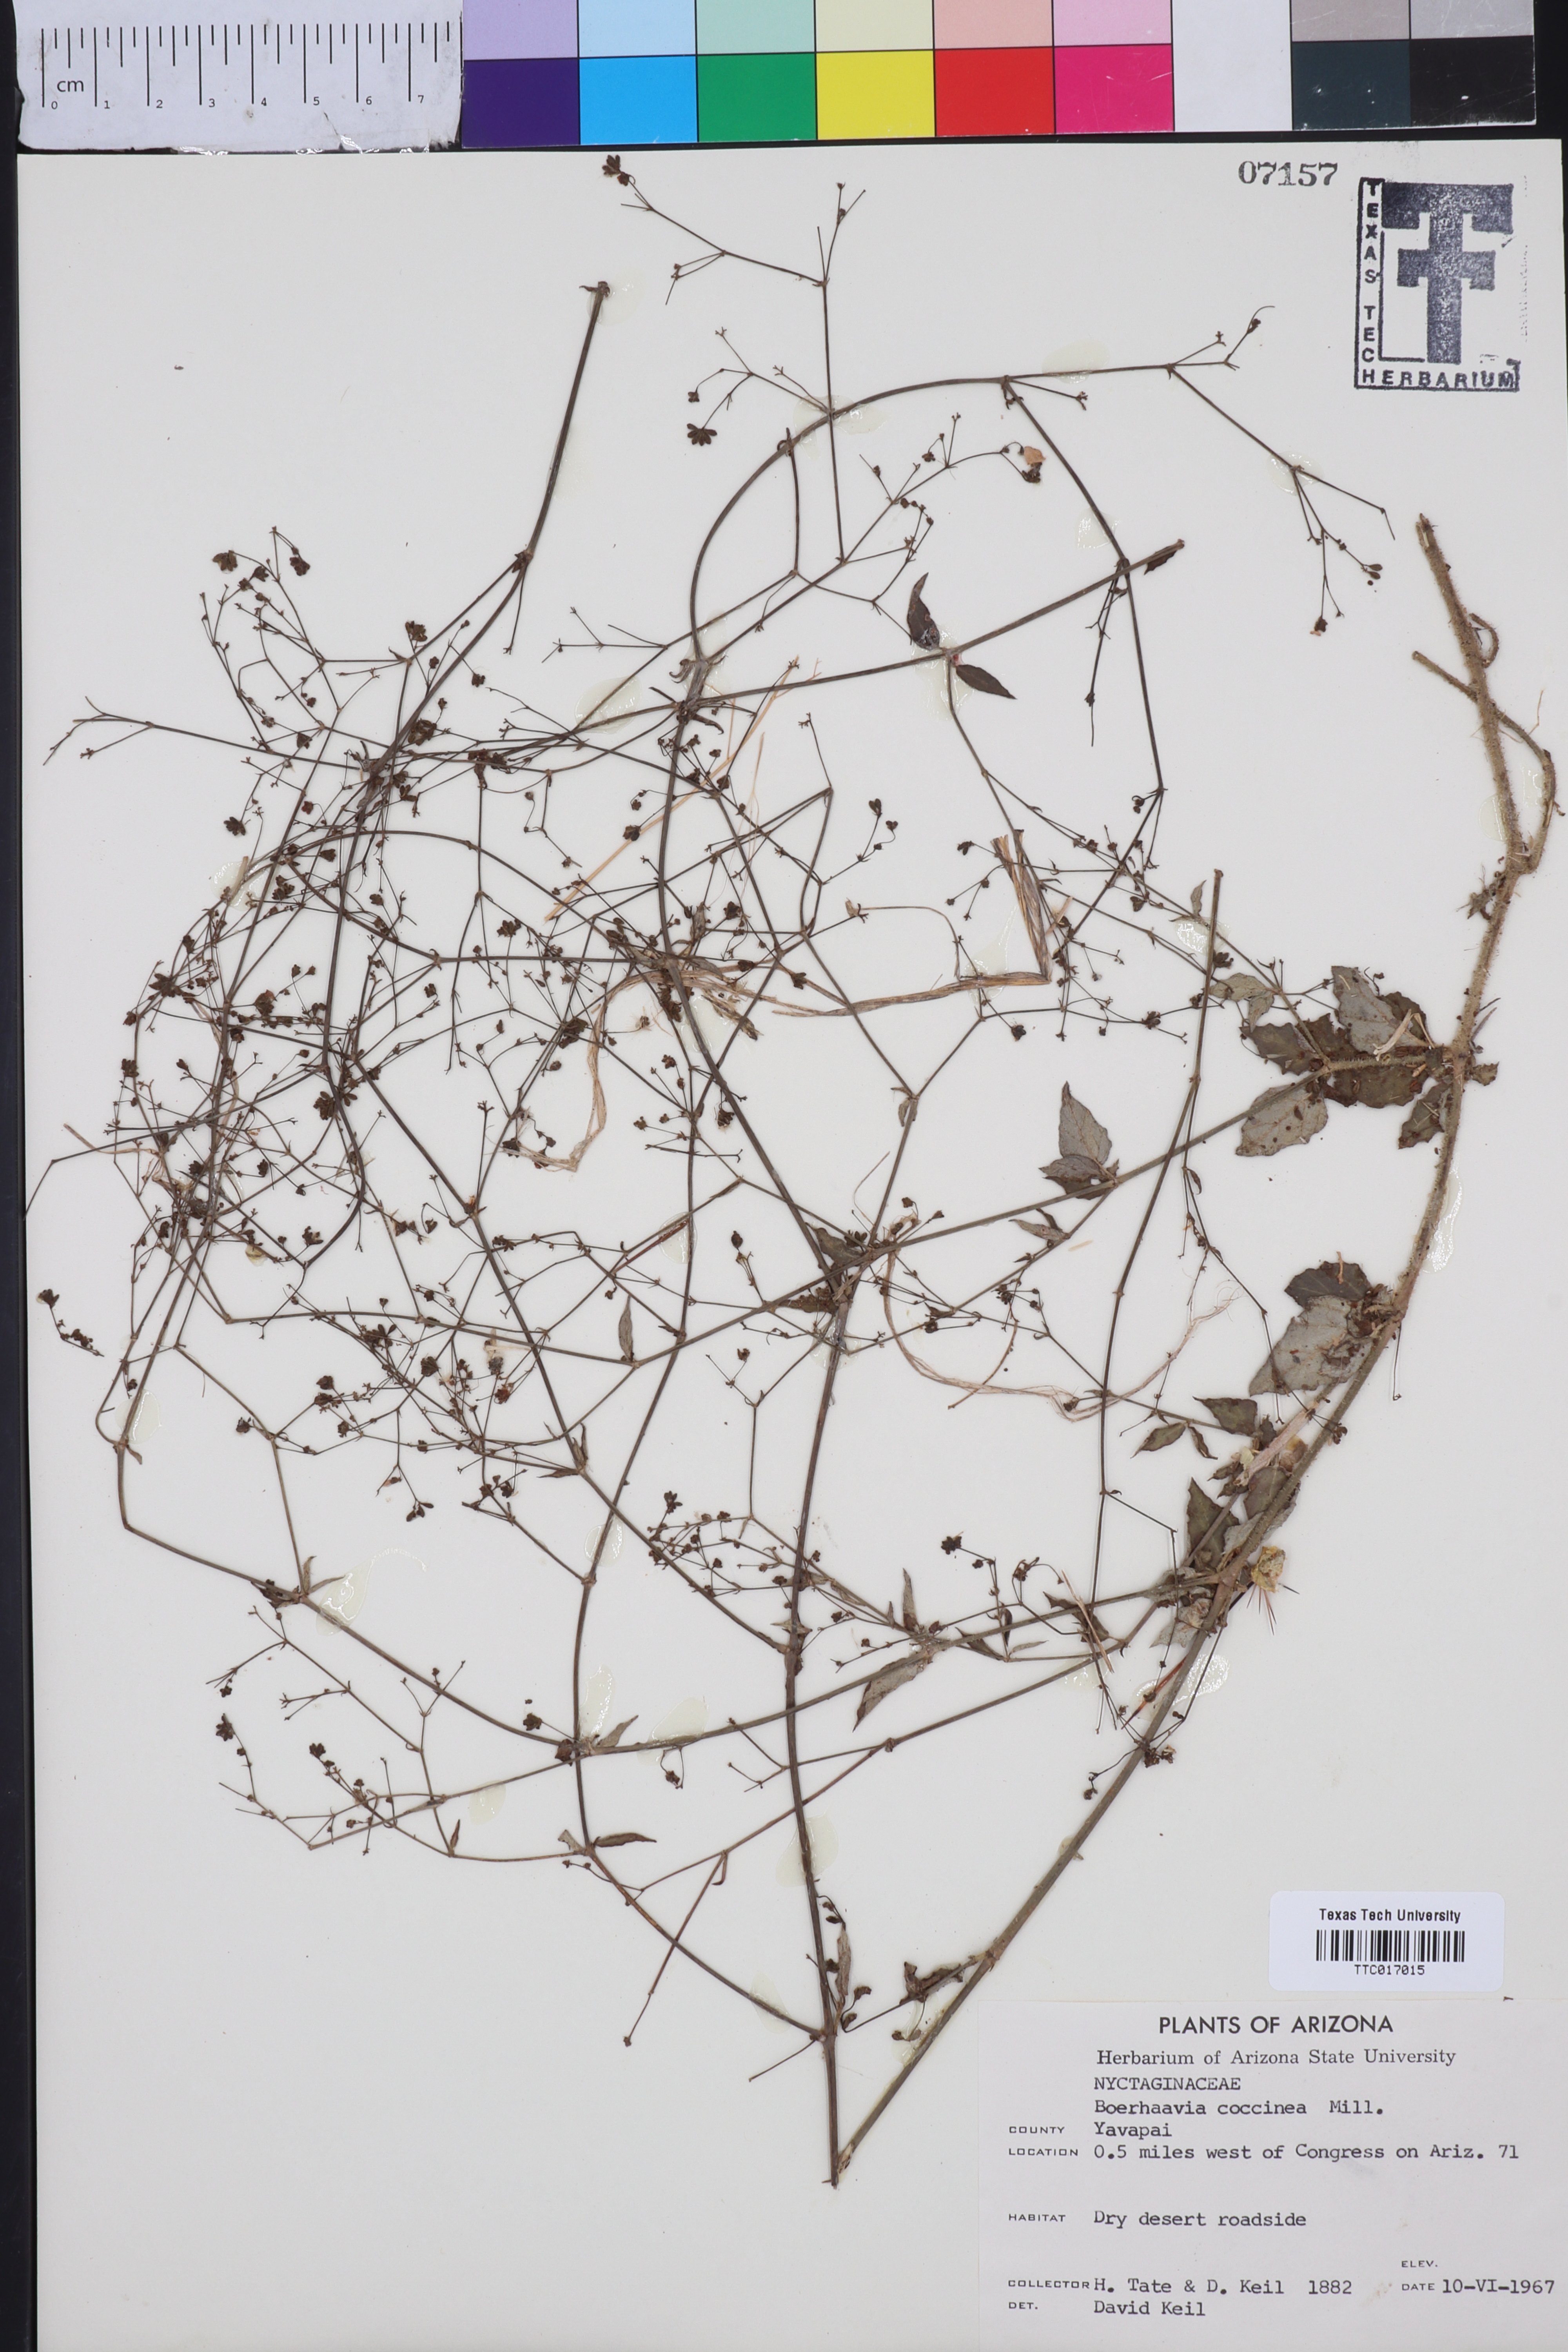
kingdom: Plantae
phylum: Tracheophyta
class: Magnoliopsida
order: Caryophyllales
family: Nyctaginaceae
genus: Boerhavia
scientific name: Boerhavia Boerhaavia coccinea
